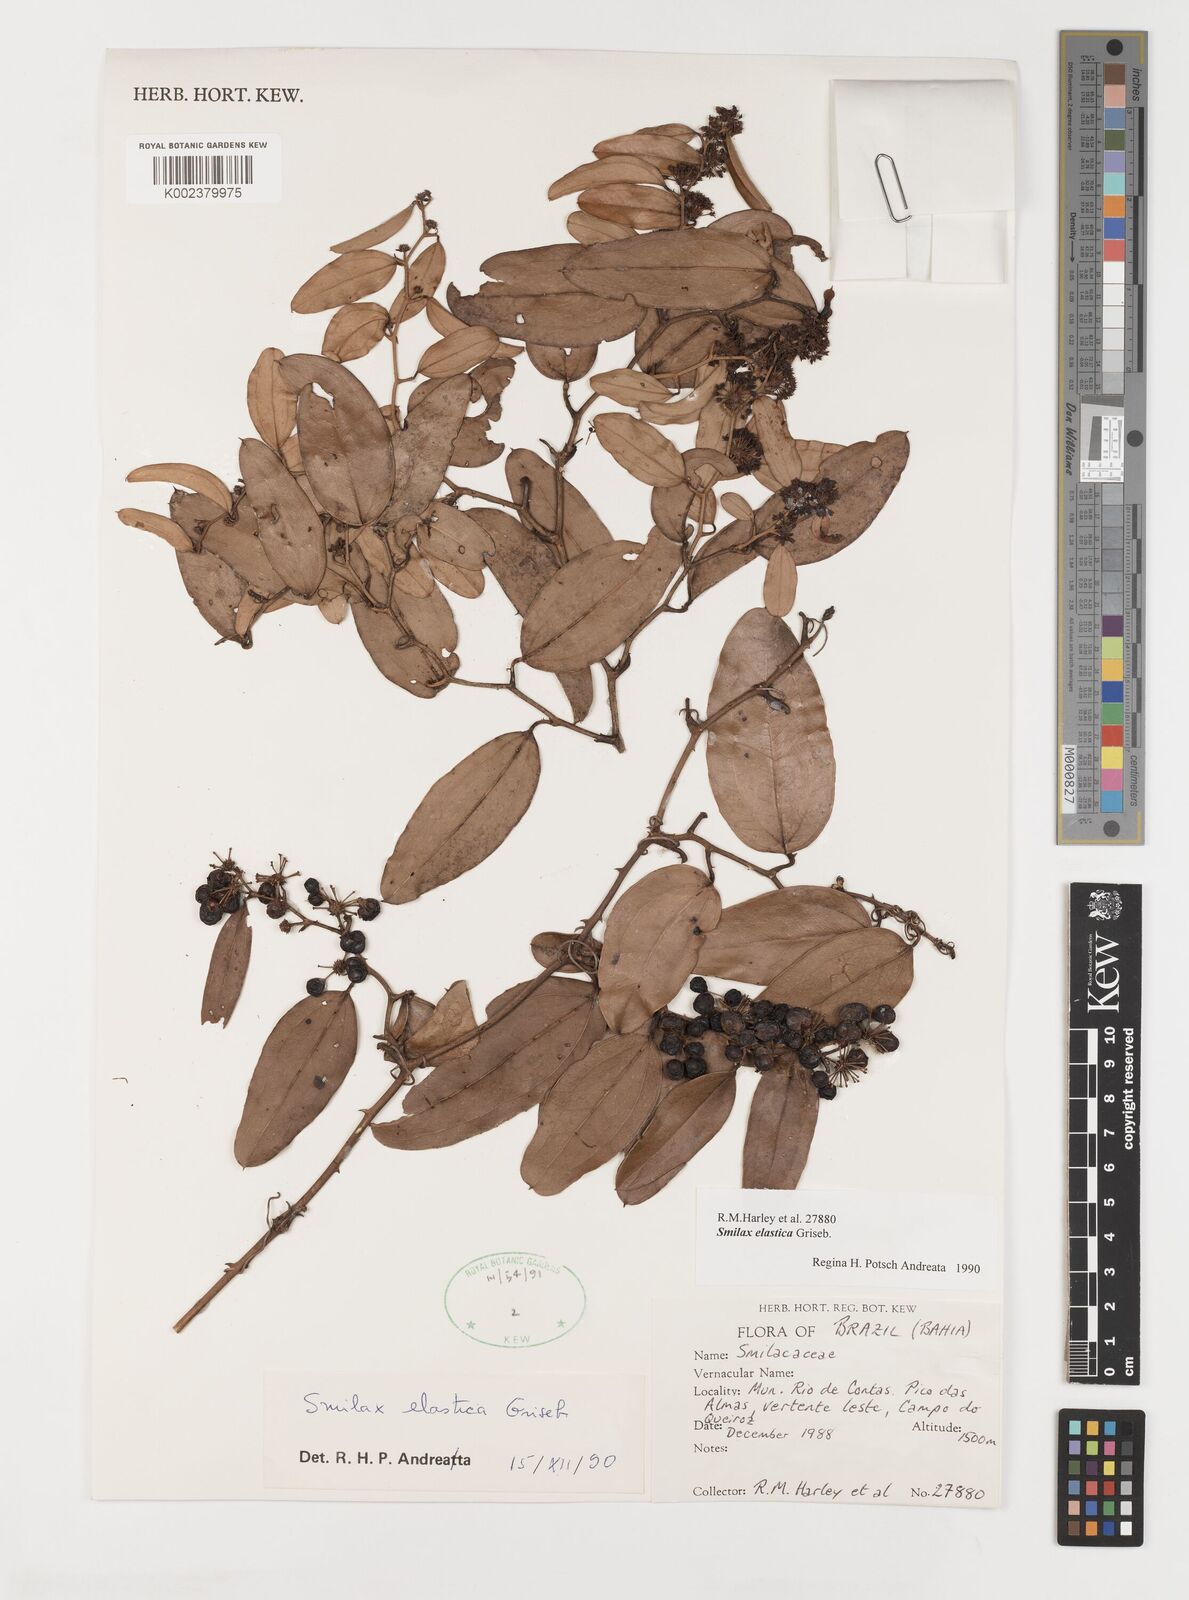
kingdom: Plantae
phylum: Tracheophyta
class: Liliopsida
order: Liliales
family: Smilacaceae
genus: Smilax
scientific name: Smilax elastica
